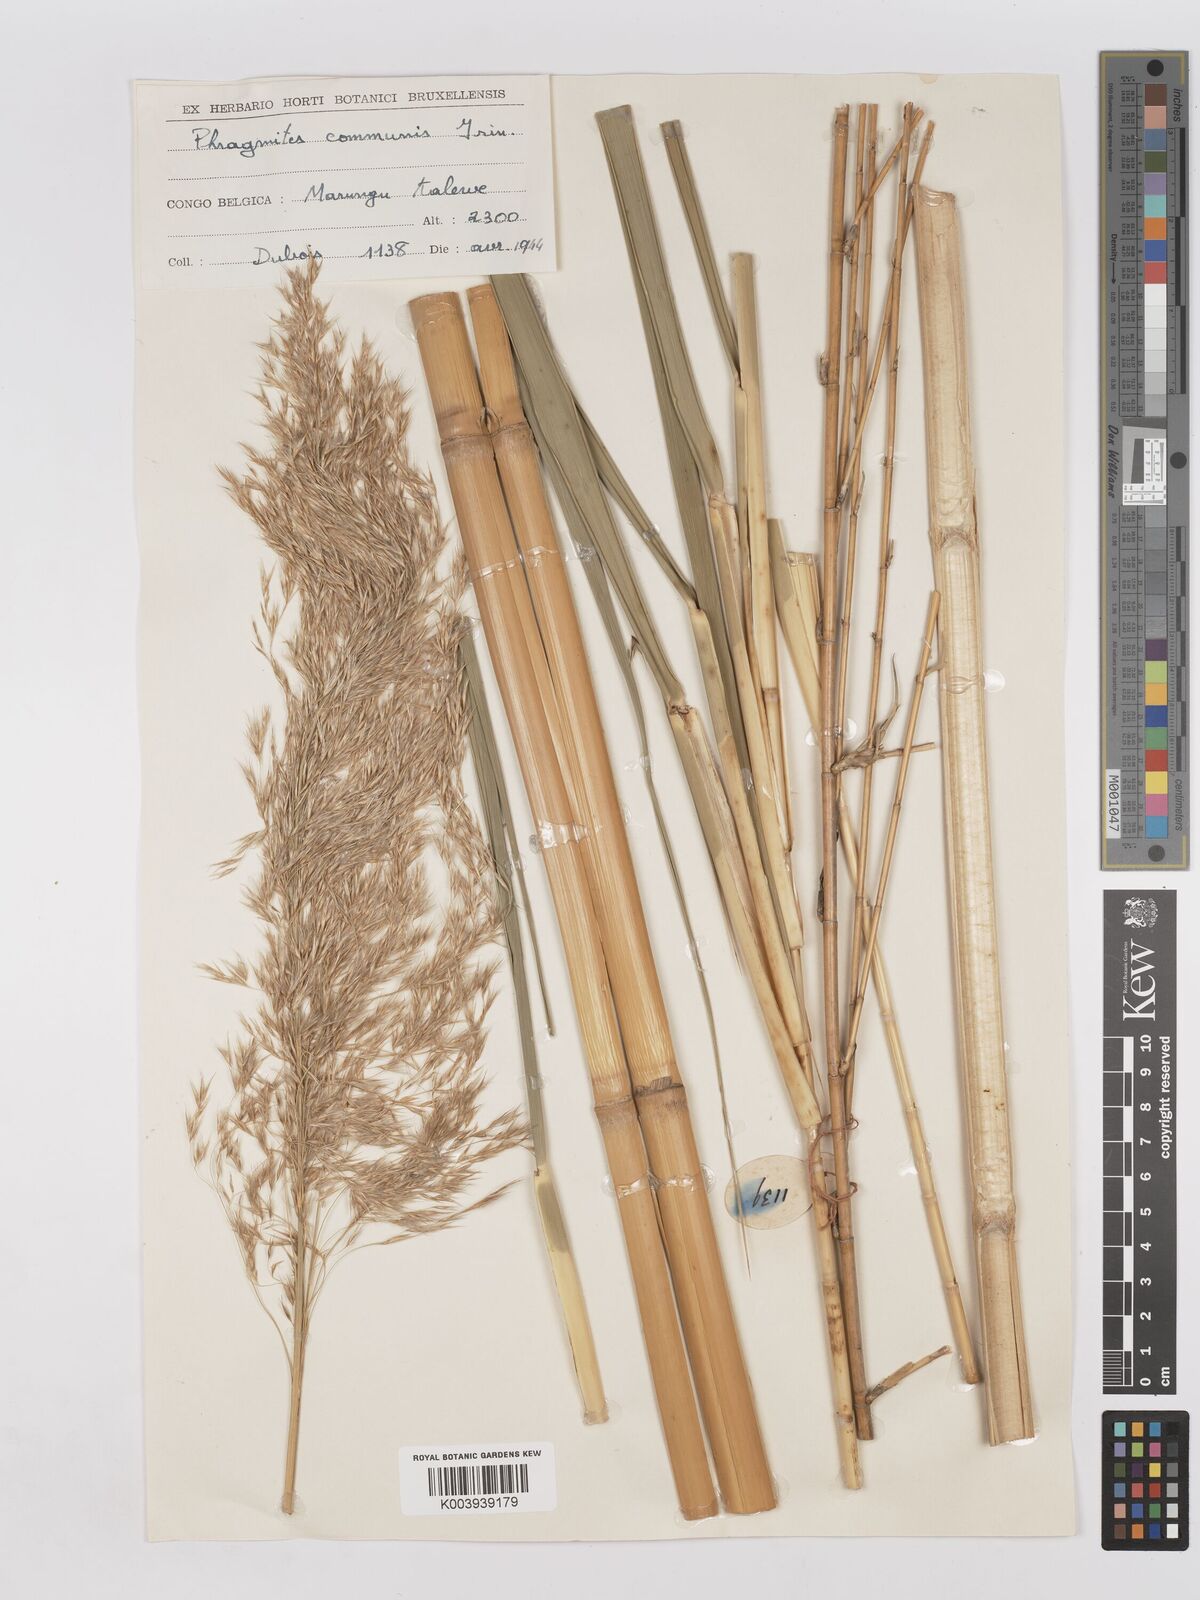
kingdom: Plantae
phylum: Tracheophyta
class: Liliopsida
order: Poales
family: Poaceae
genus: Phragmites
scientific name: Phragmites mauritianus
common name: Reed grass
